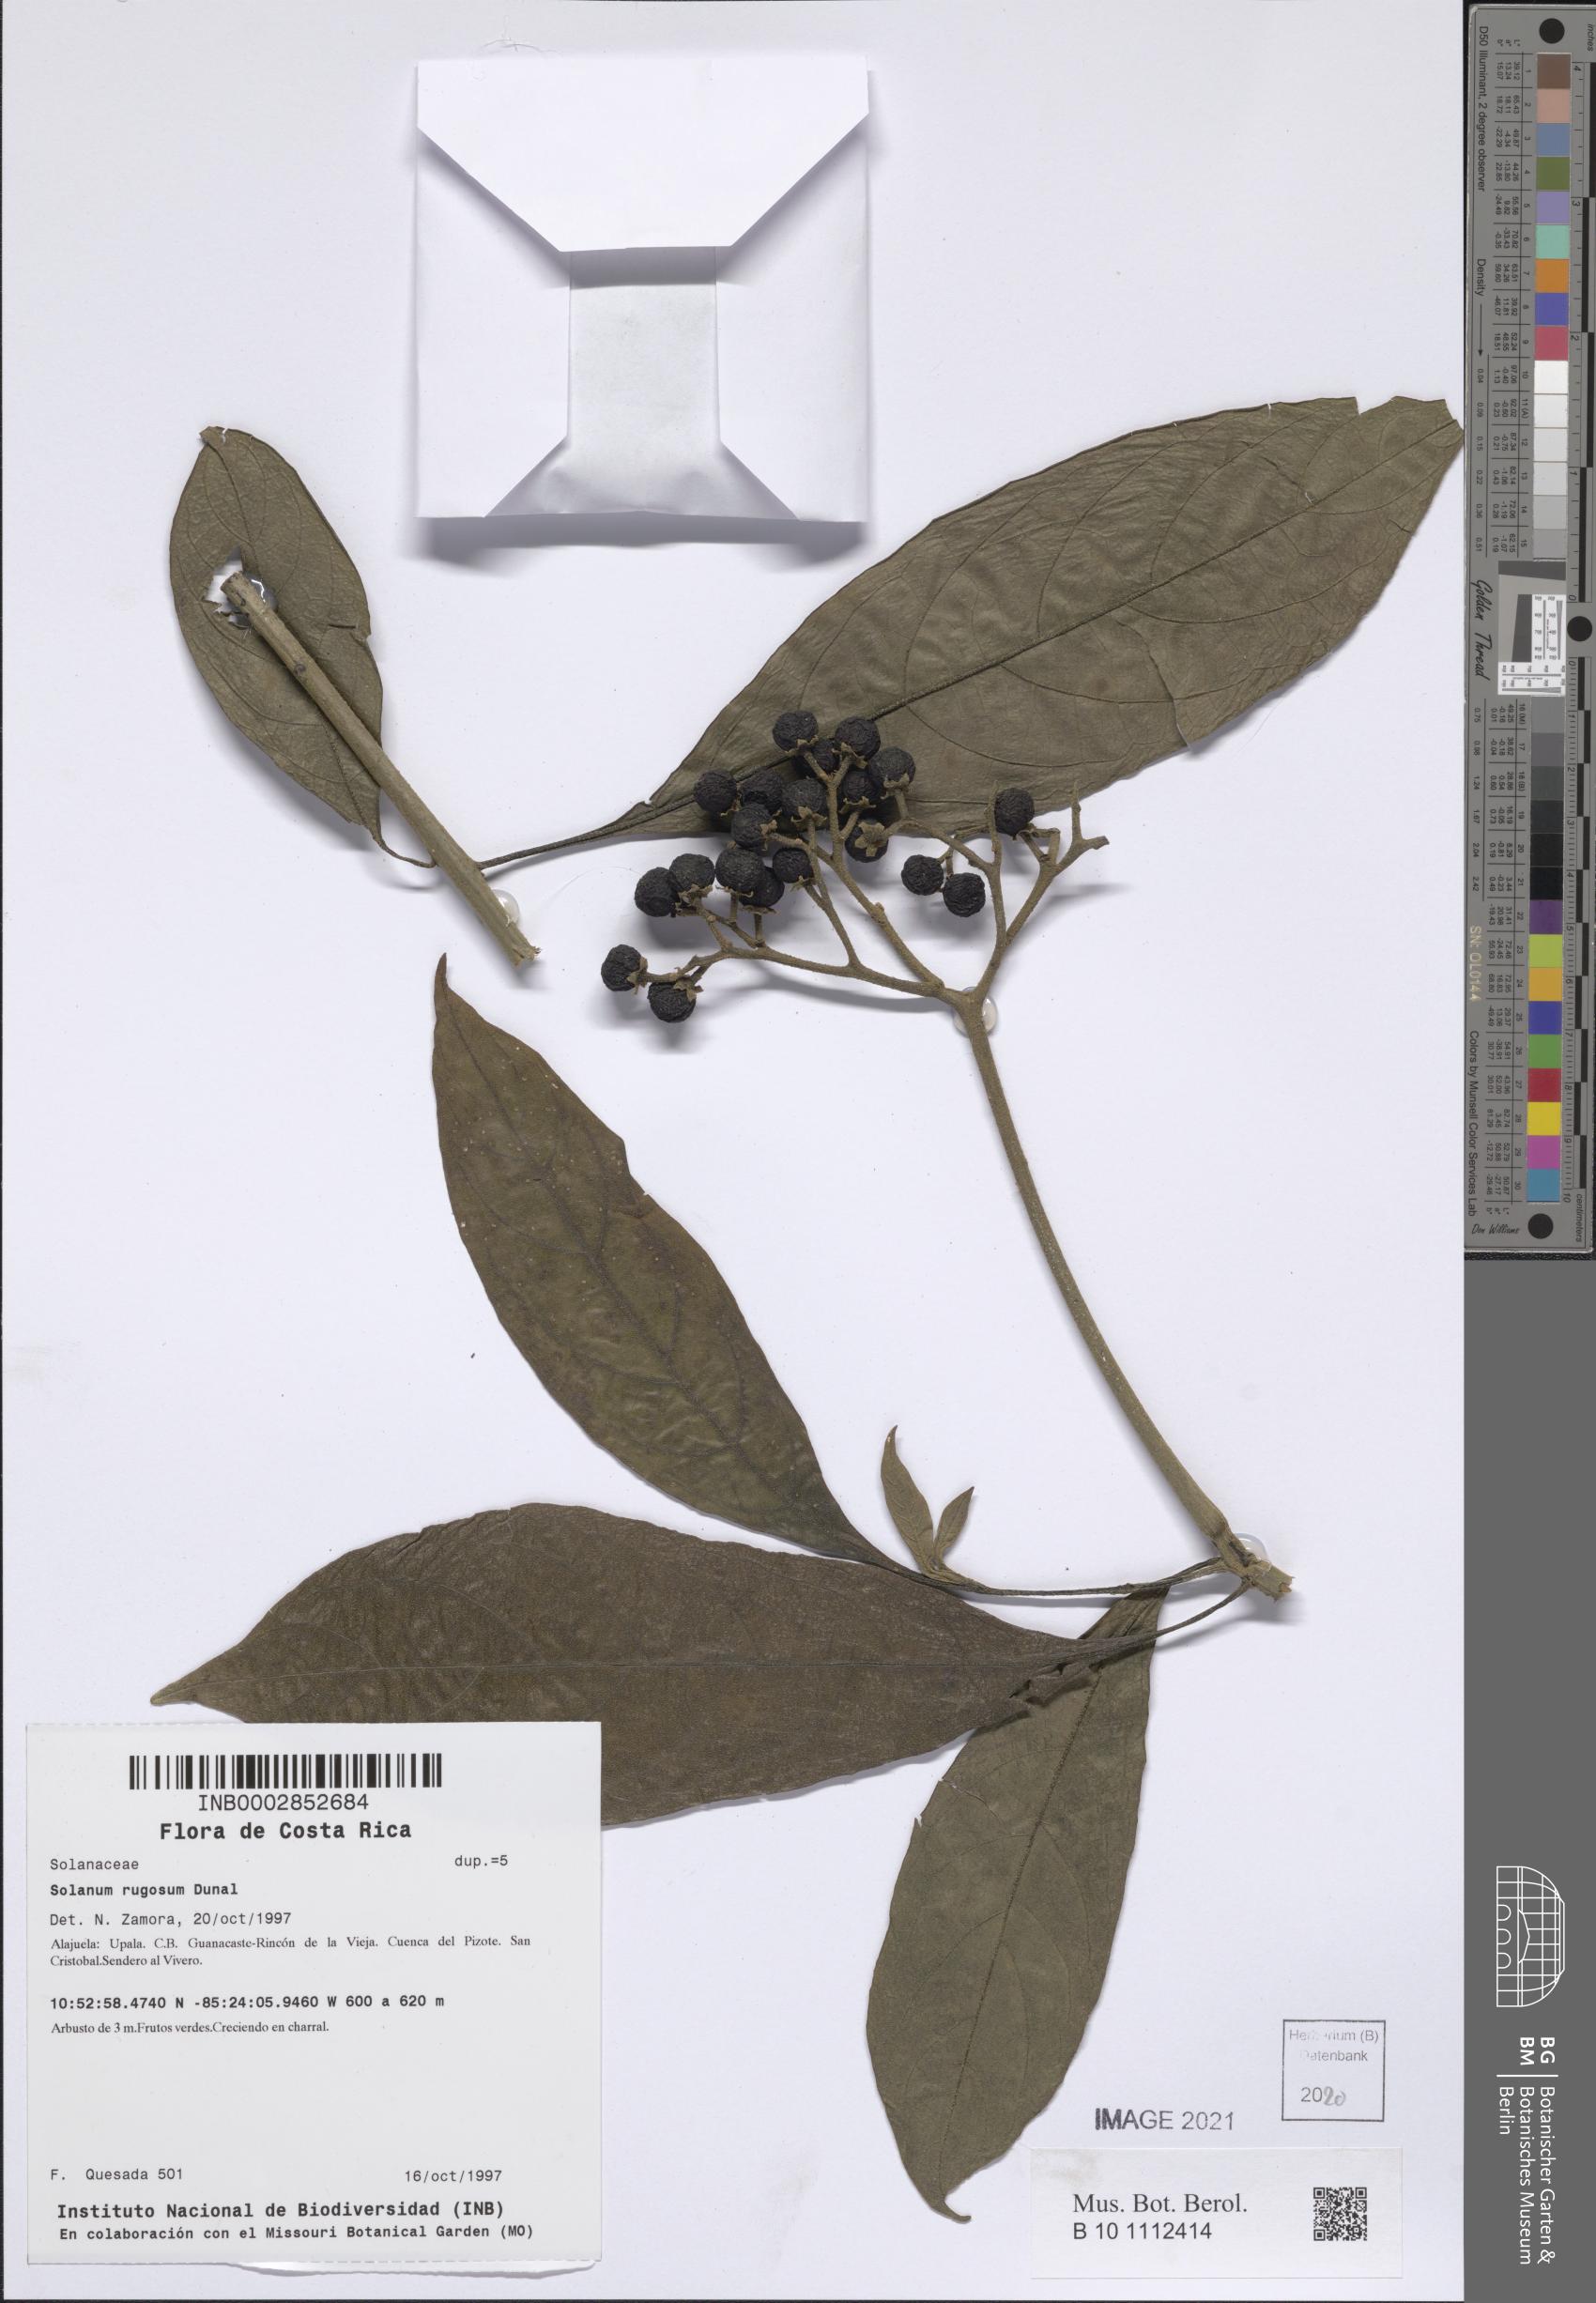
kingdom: Plantae
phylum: Tracheophyta
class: Magnoliopsida
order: Solanales
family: Solanaceae
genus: Solanum
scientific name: Solanum rugosum
